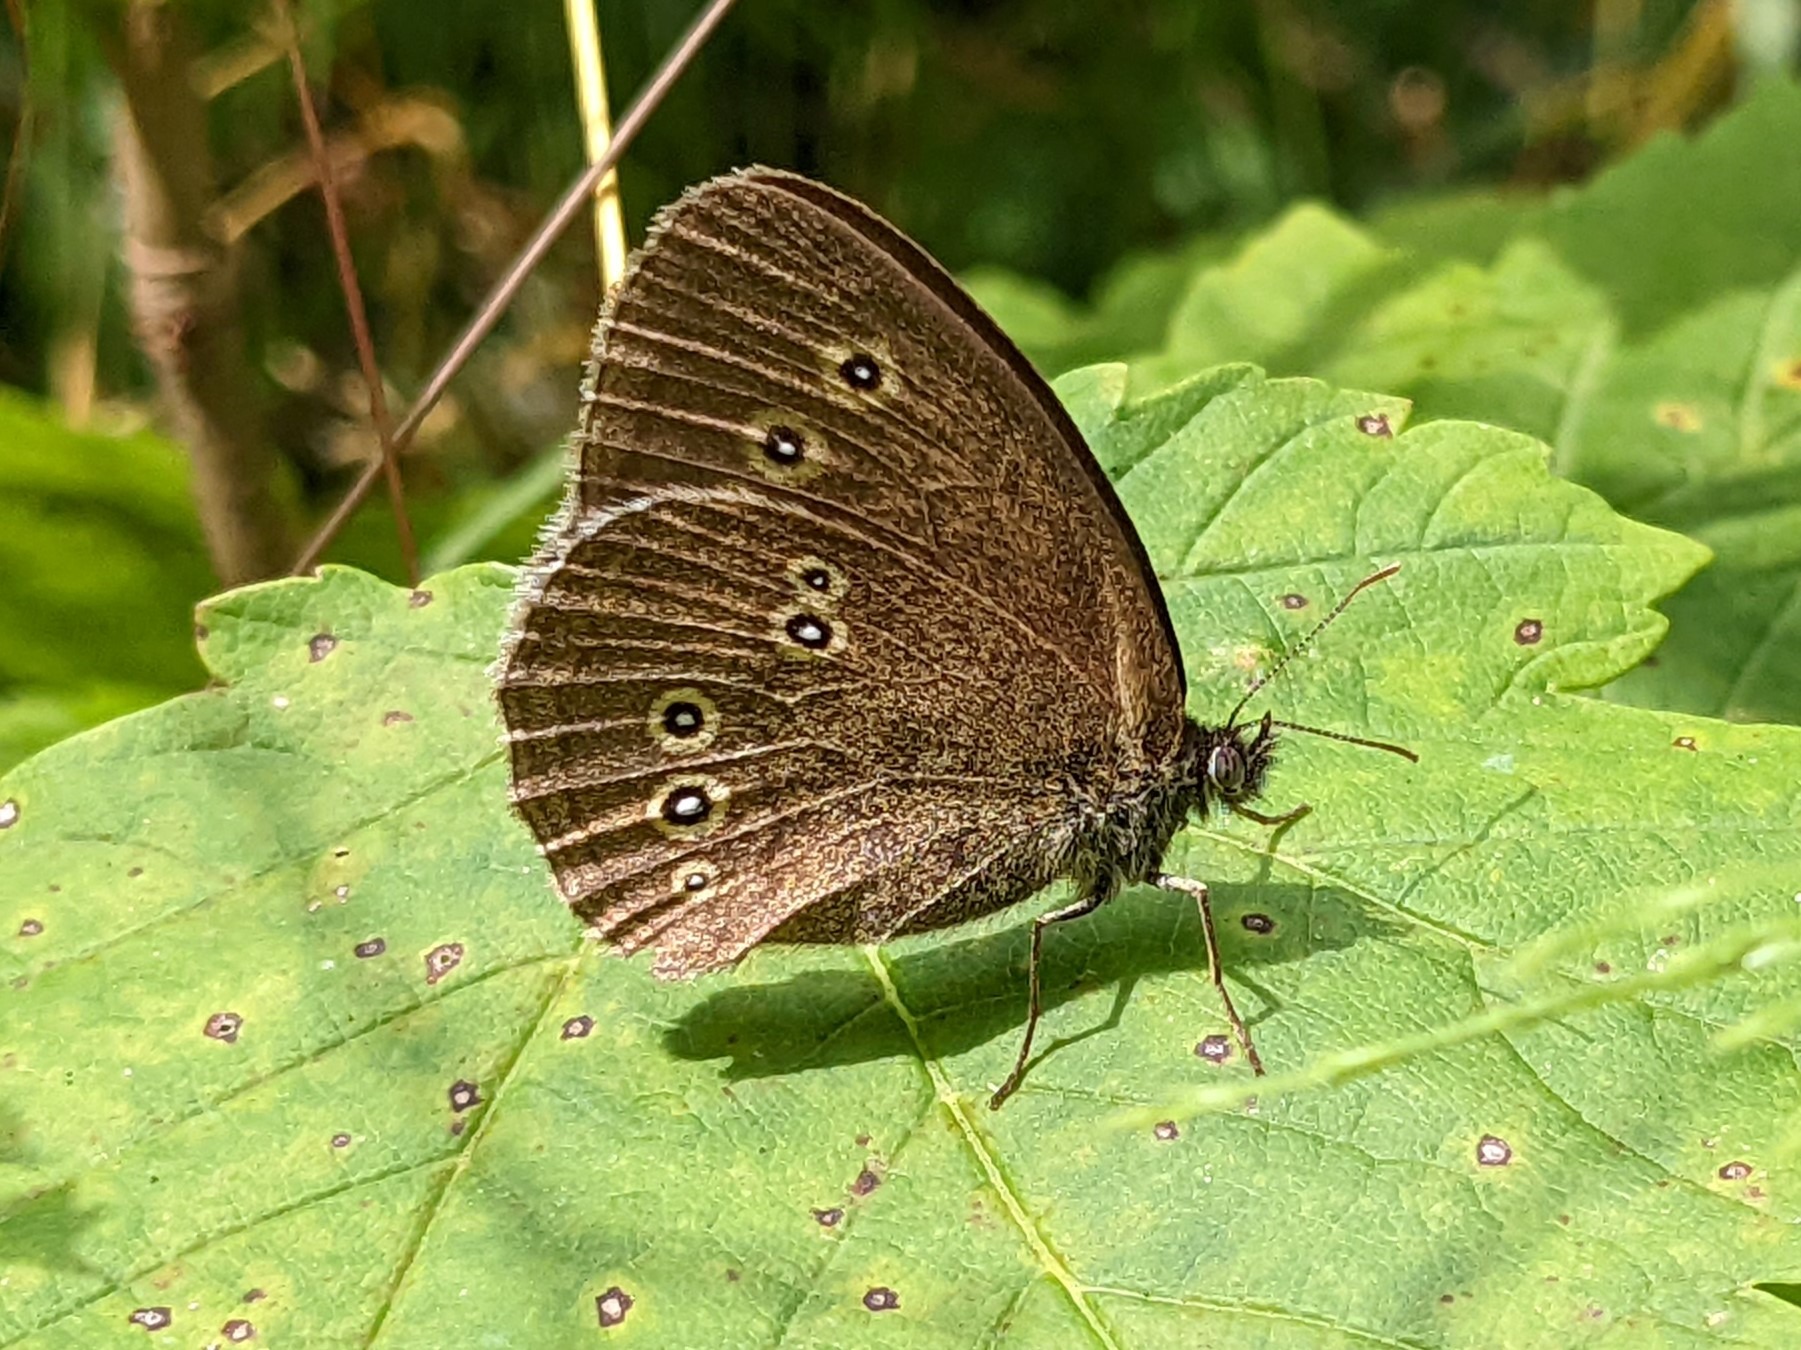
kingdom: Animalia
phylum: Arthropoda
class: Insecta
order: Lepidoptera
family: Nymphalidae
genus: Aphantopus
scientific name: Aphantopus hyperantus
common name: Engrandøje
